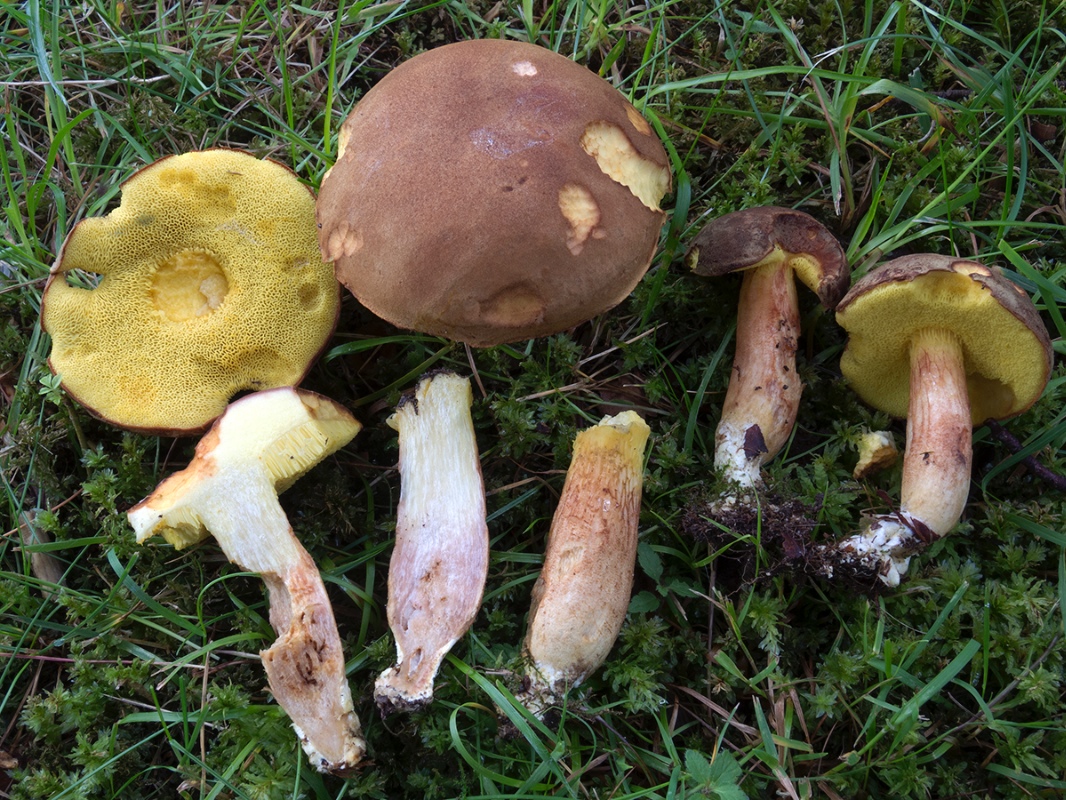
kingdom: Fungi
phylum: Basidiomycota
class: Agaricomycetes
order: Boletales
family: Boletaceae
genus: Xerocomus
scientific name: Xerocomus ferrugineus
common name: vaskeskinds-rørhat
